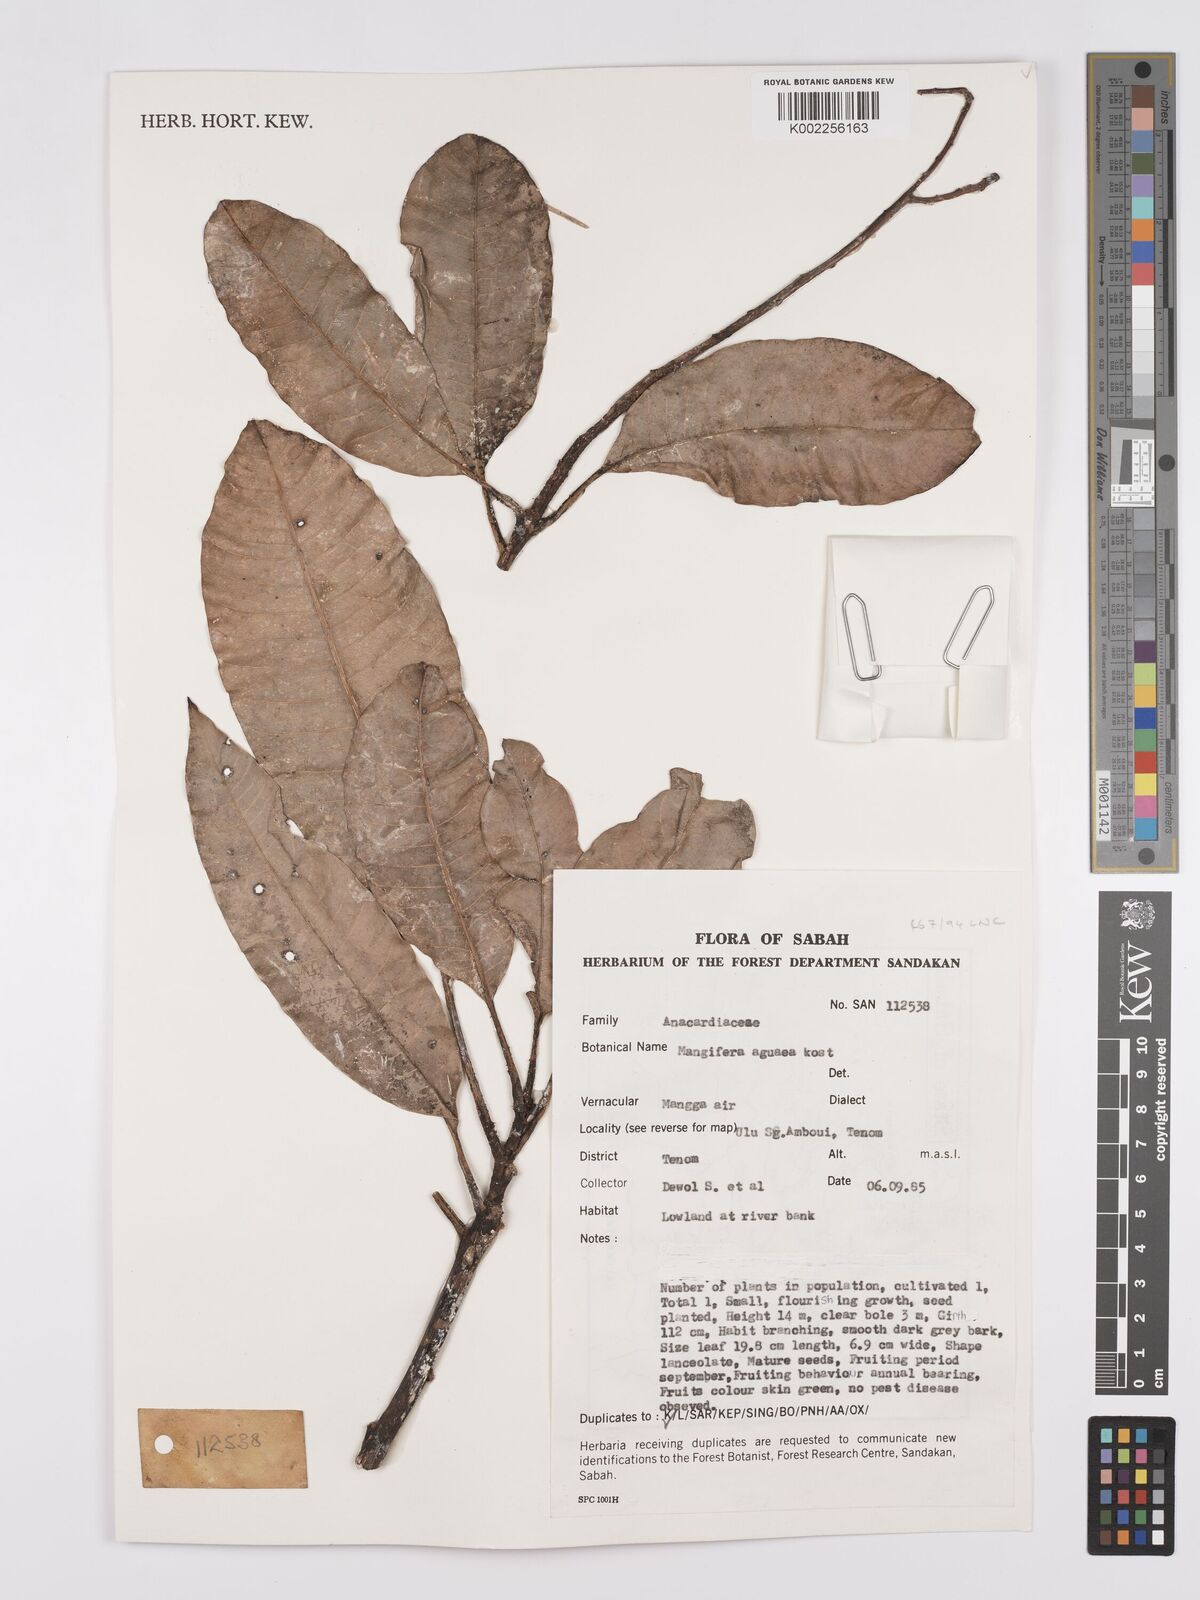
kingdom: Plantae
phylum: Tracheophyta
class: Magnoliopsida
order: Sapindales
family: Anacardiaceae
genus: Mangifera
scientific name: Mangifera laurina
